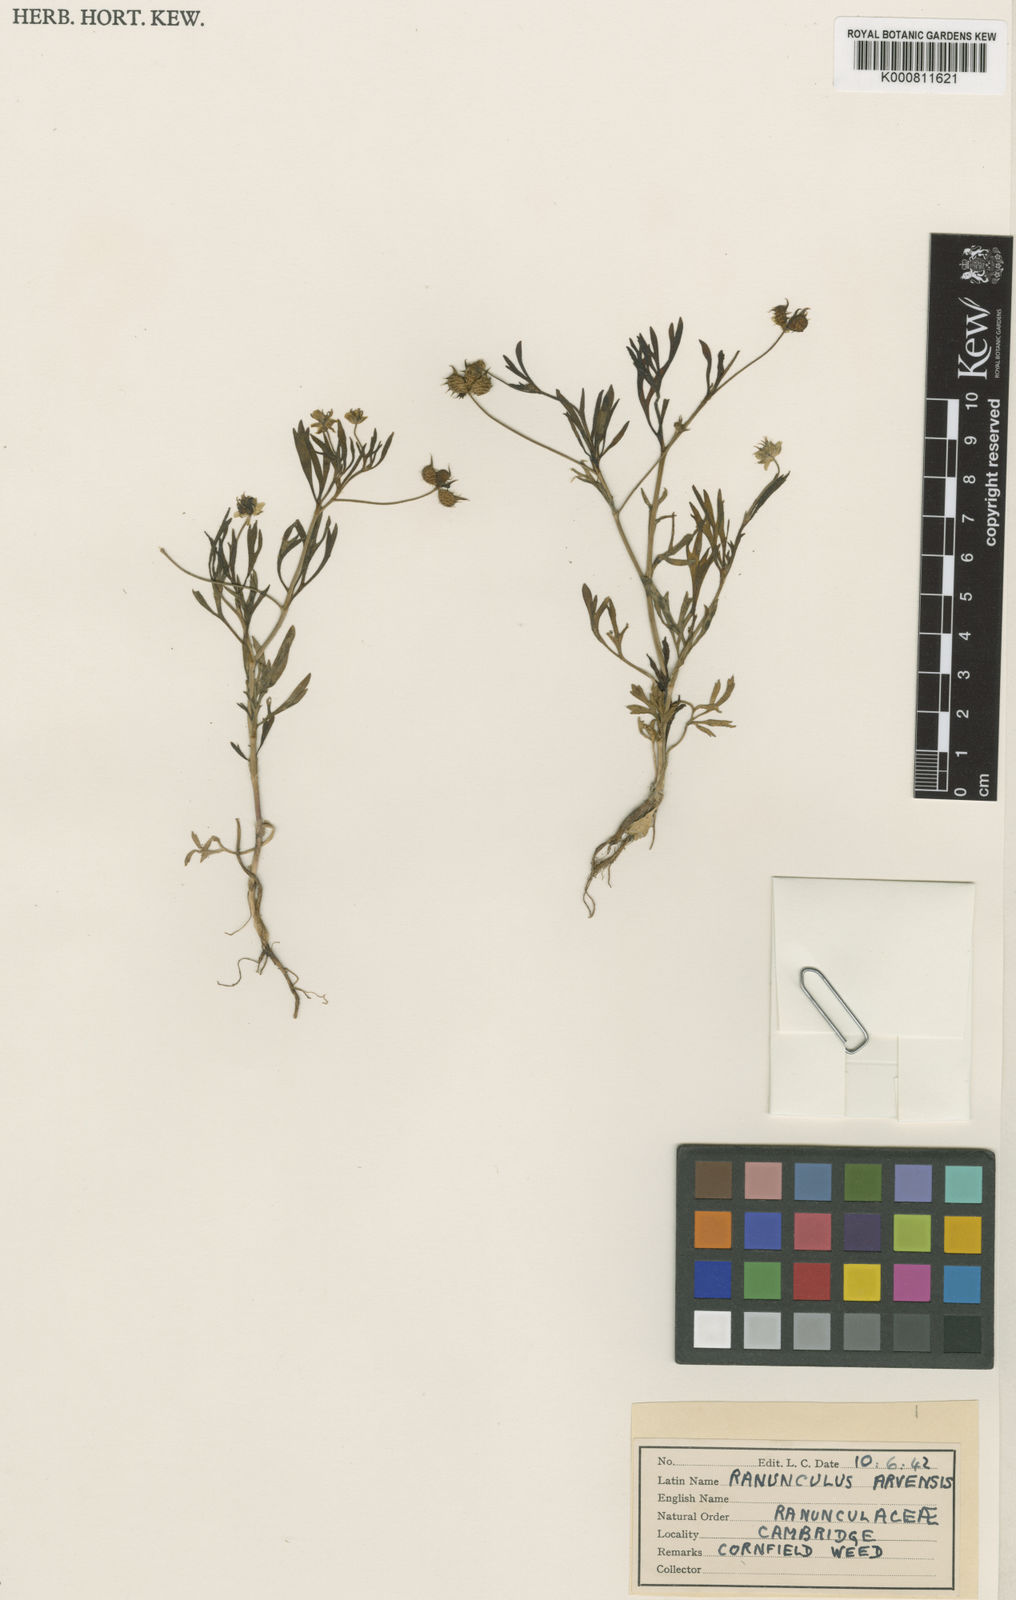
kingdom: Plantae
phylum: Tracheophyta
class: Magnoliopsida
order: Ranunculales
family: Ranunculaceae
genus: Ranunculus
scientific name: Ranunculus arvensis
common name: Corn buttercup
